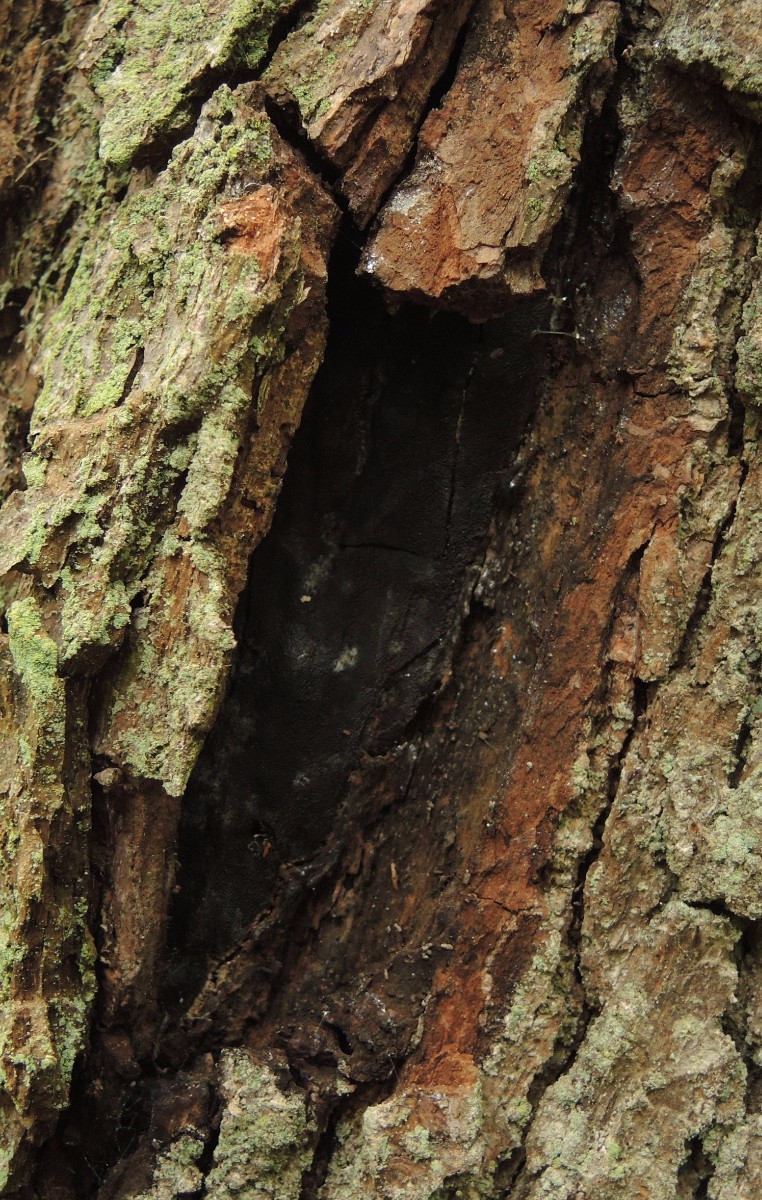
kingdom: Fungi
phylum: Ascomycota
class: Sordariomycetes
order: Boliniales
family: Boliniaceae
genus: Camarops
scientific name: Camarops polysperma
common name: elle-kulsnegl
